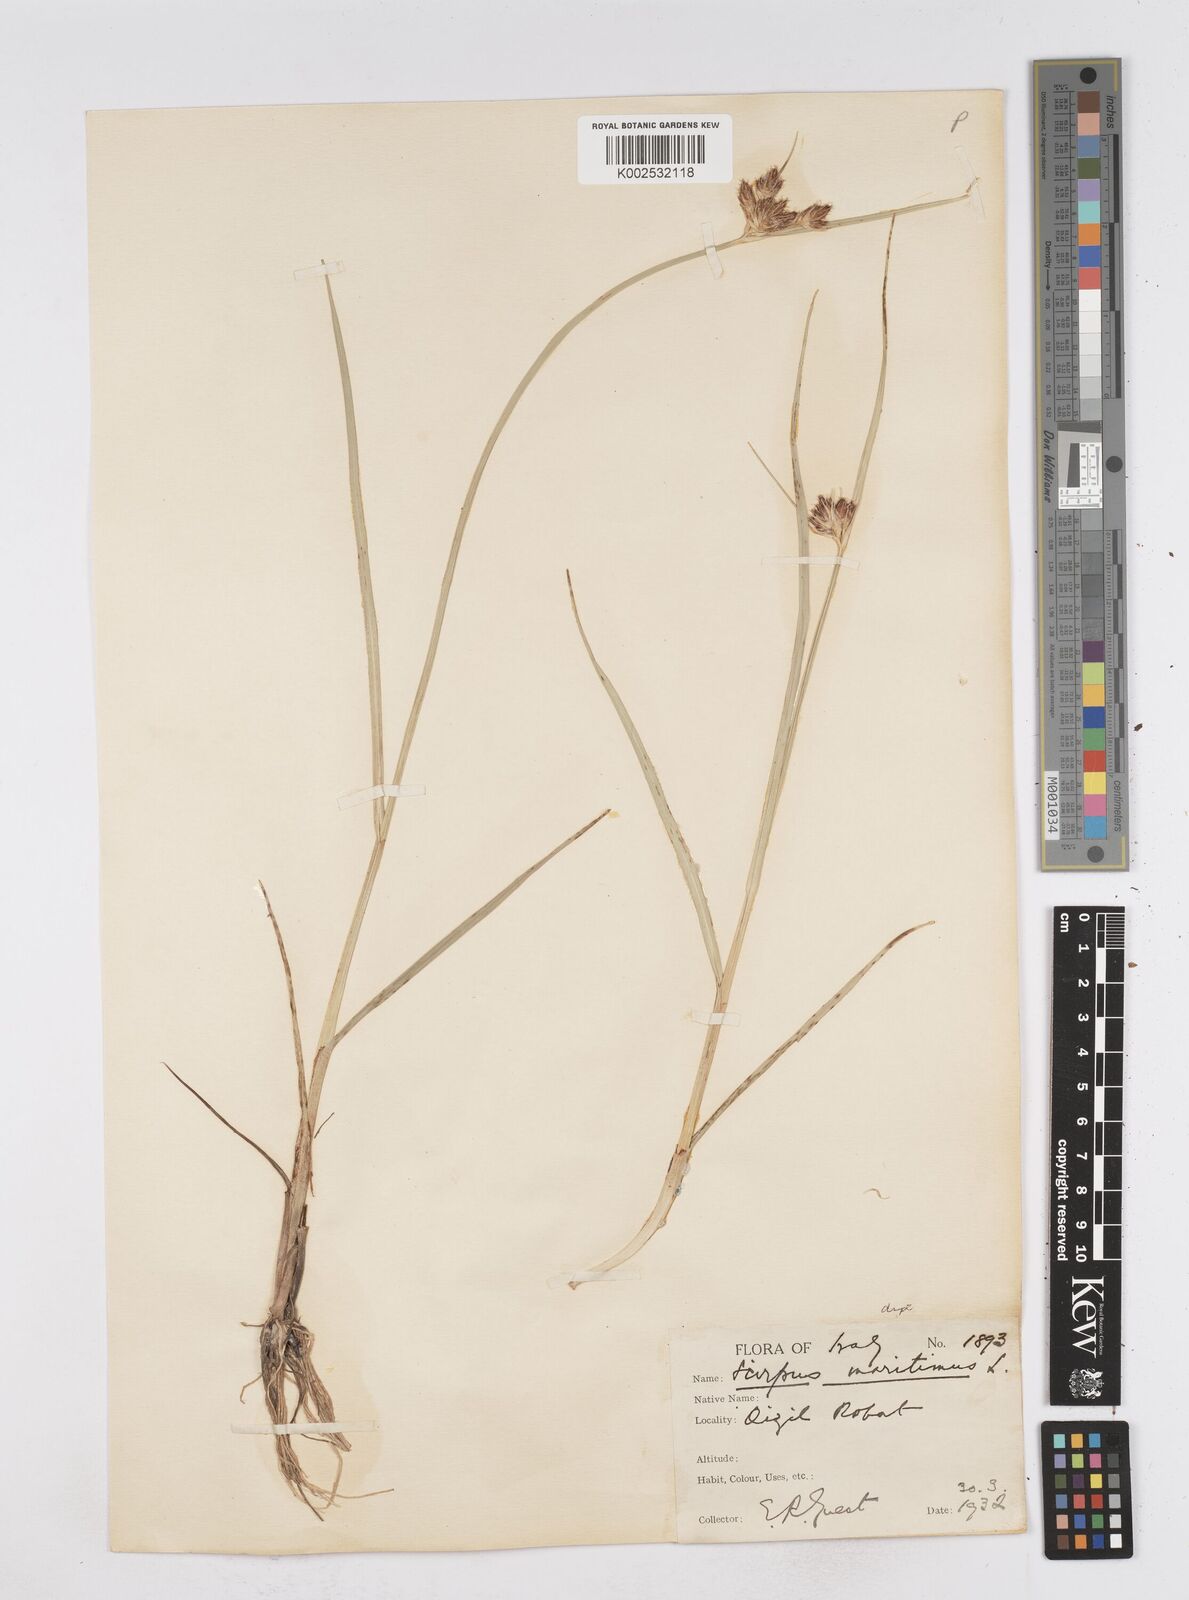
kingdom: Plantae
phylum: Tracheophyta
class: Liliopsida
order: Poales
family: Cyperaceae
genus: Bolboschoenus
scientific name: Bolboschoenus maritimus
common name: Sea club-rush
